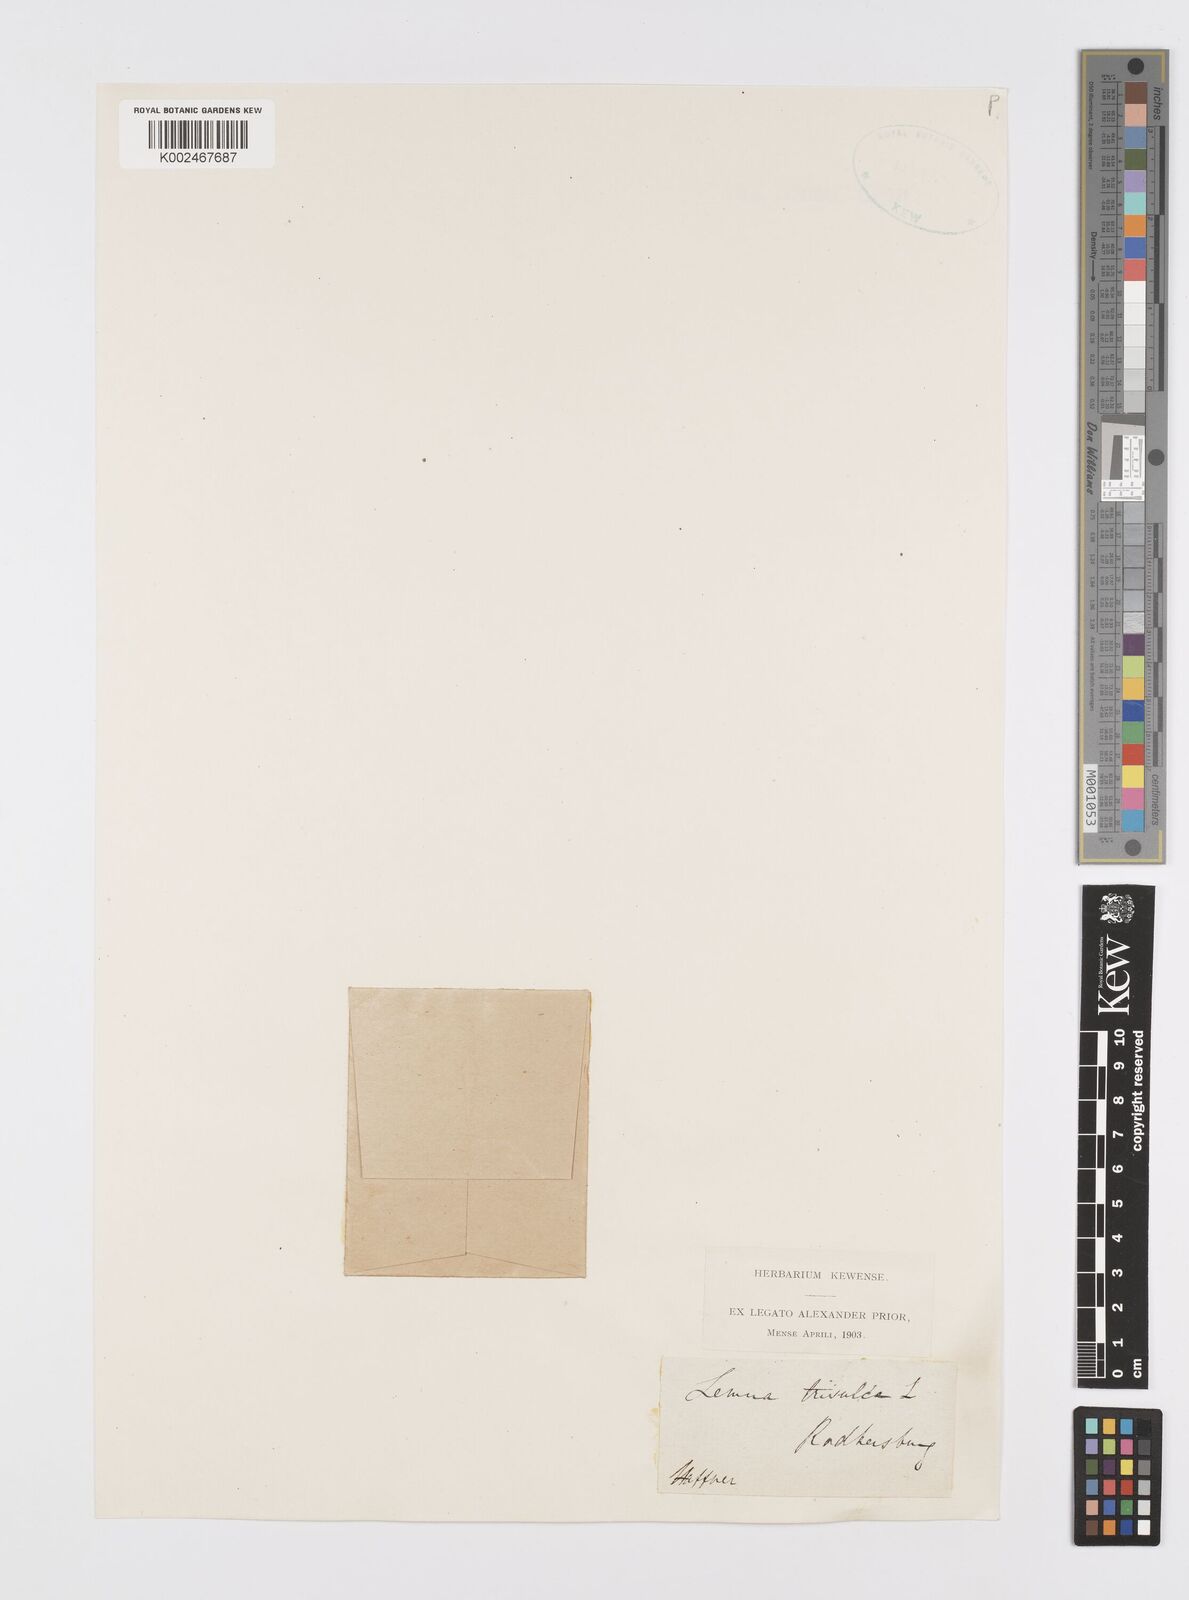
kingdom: Plantae
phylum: Tracheophyta
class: Liliopsida
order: Alismatales
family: Araceae
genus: Lemna
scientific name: Lemna trisulca
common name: Ivy-leaved duckweed
